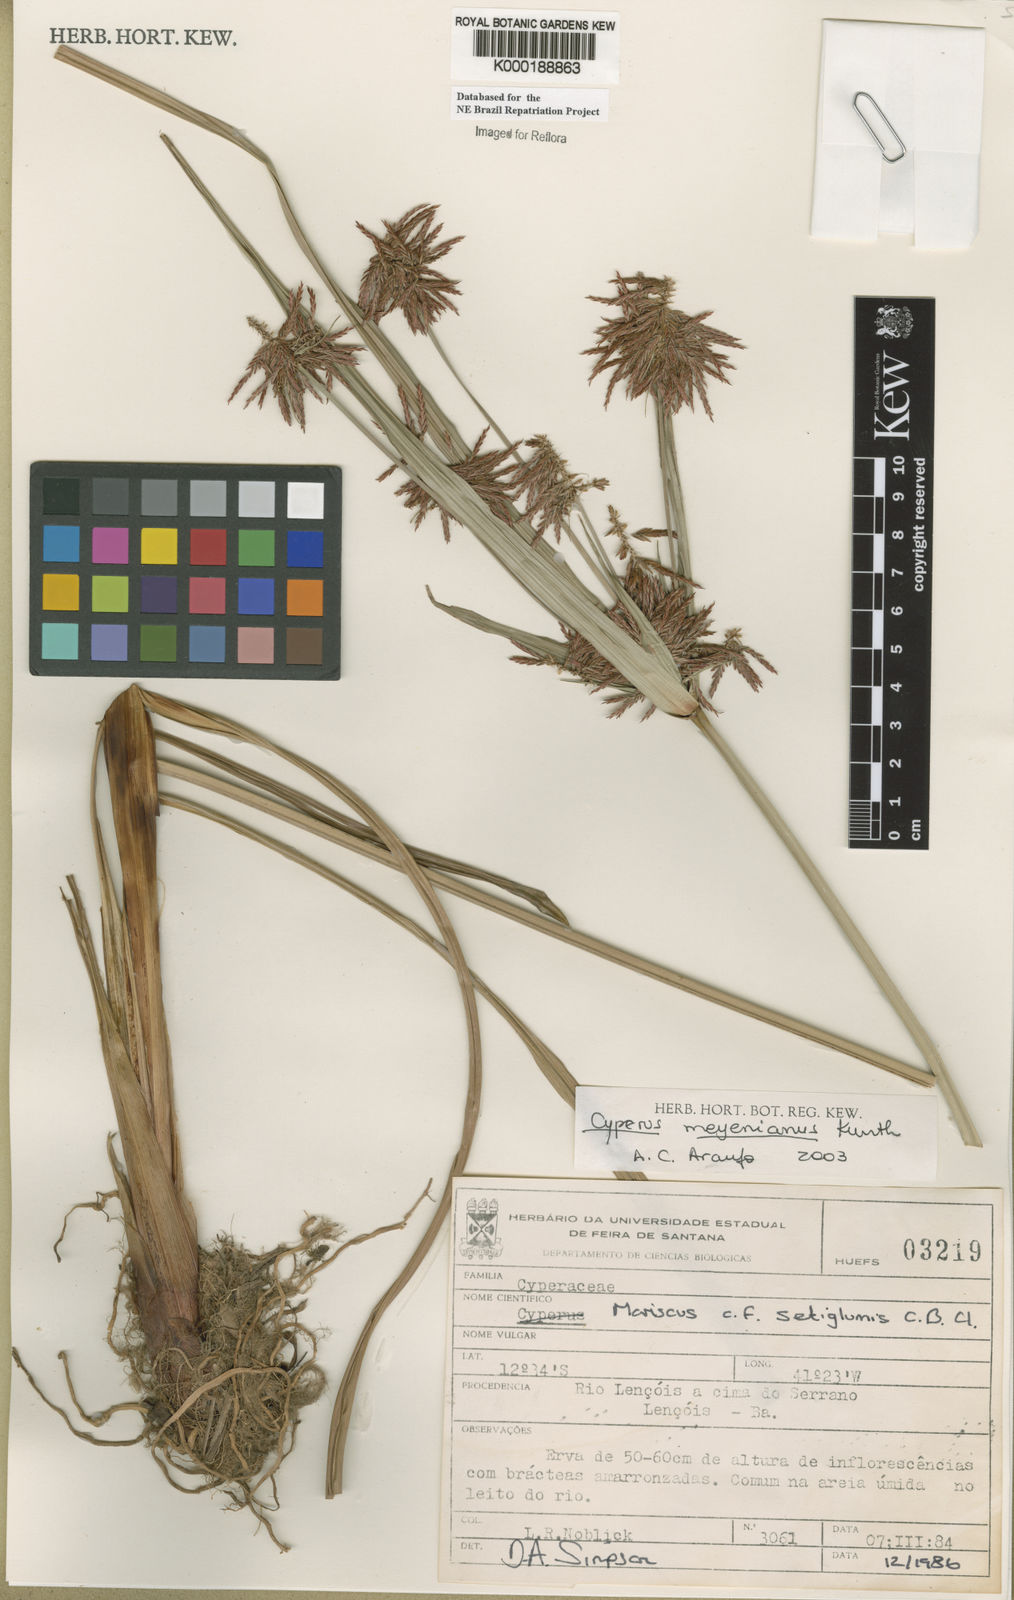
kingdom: Plantae
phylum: Tracheophyta
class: Liliopsida
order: Poales
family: Cyperaceae
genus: Cyperus
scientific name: Cyperus meyerianus
